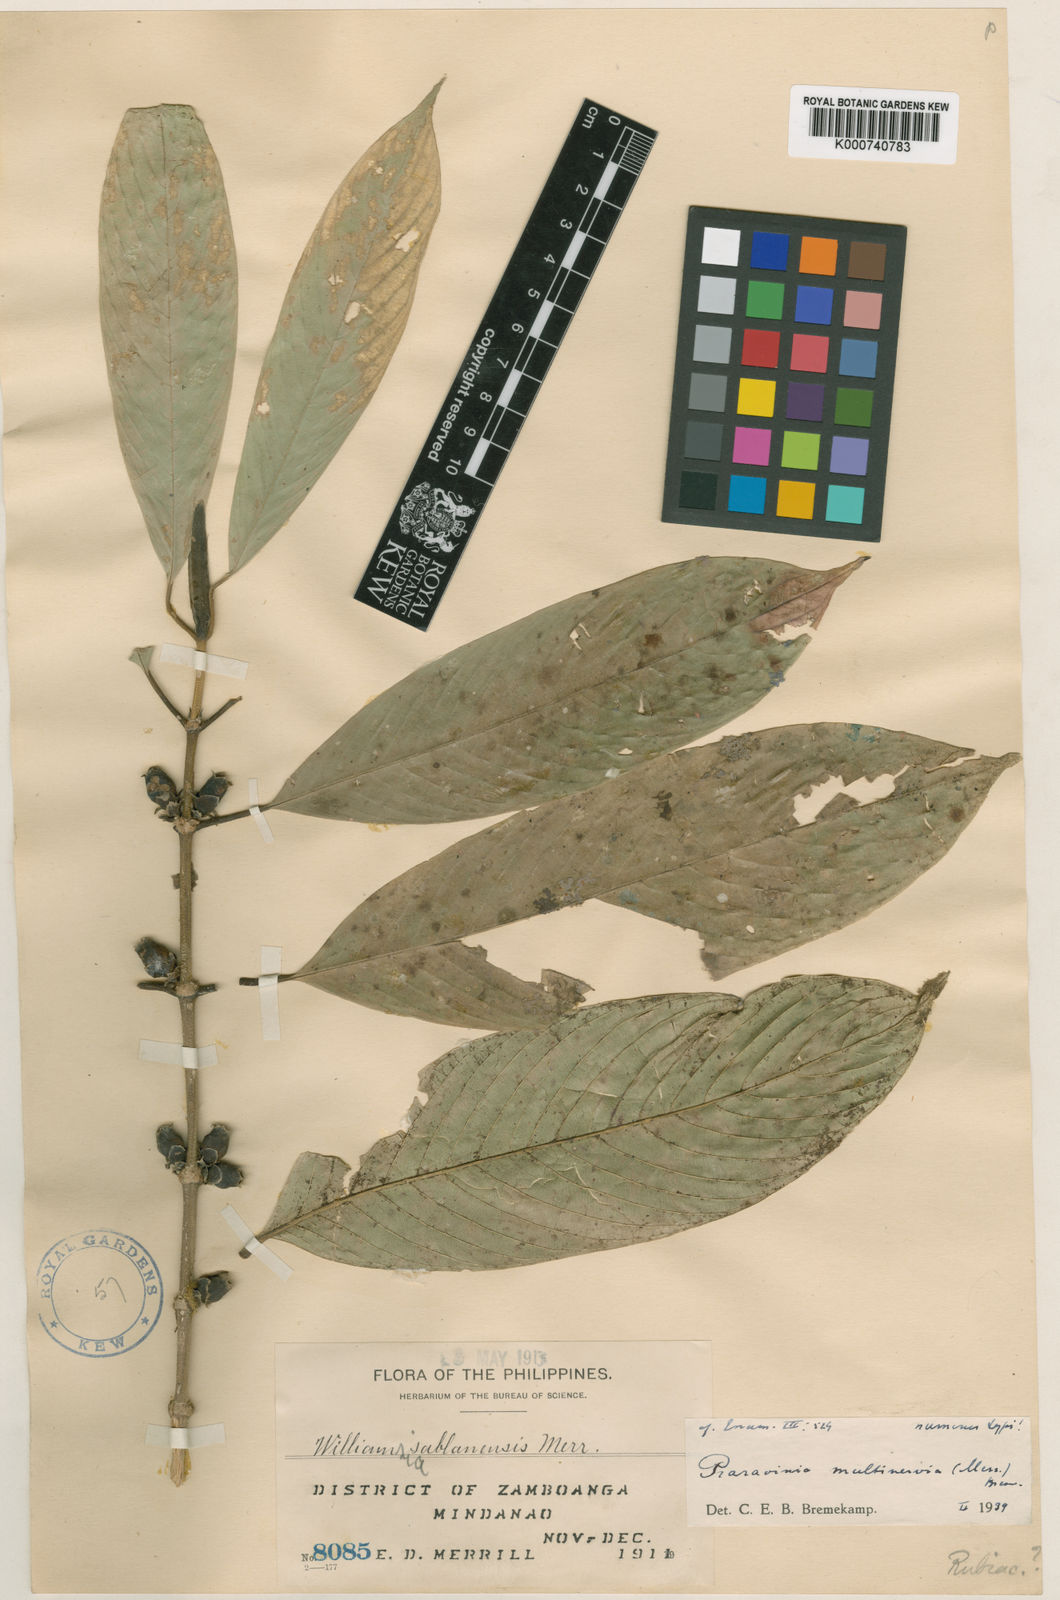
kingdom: Plantae
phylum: Tracheophyta
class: Magnoliopsida
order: Gentianales
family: Rubiaceae
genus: Praravinia
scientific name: Praravinia multinervia
